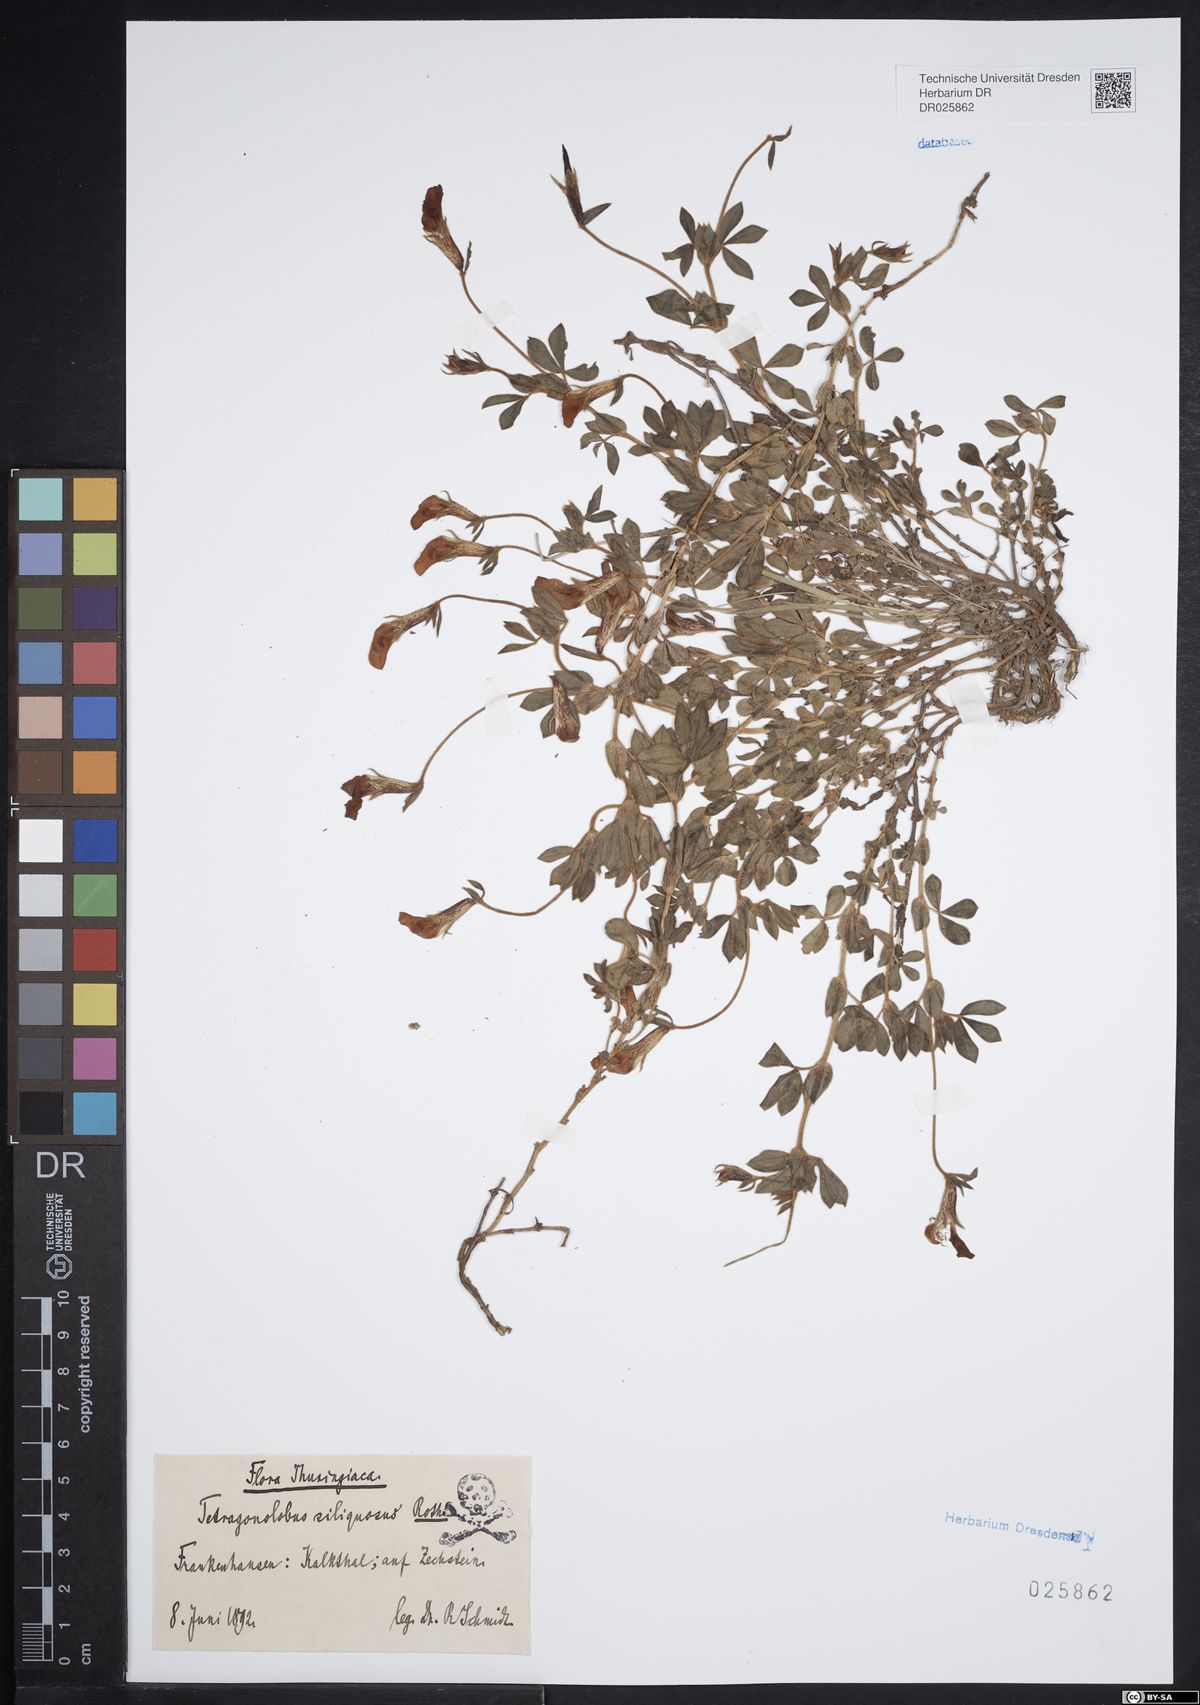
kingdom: Plantae
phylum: Tracheophyta
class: Magnoliopsida
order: Fabales
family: Fabaceae
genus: Lotus
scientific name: Lotus maritimus
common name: Dragon's-teeth
